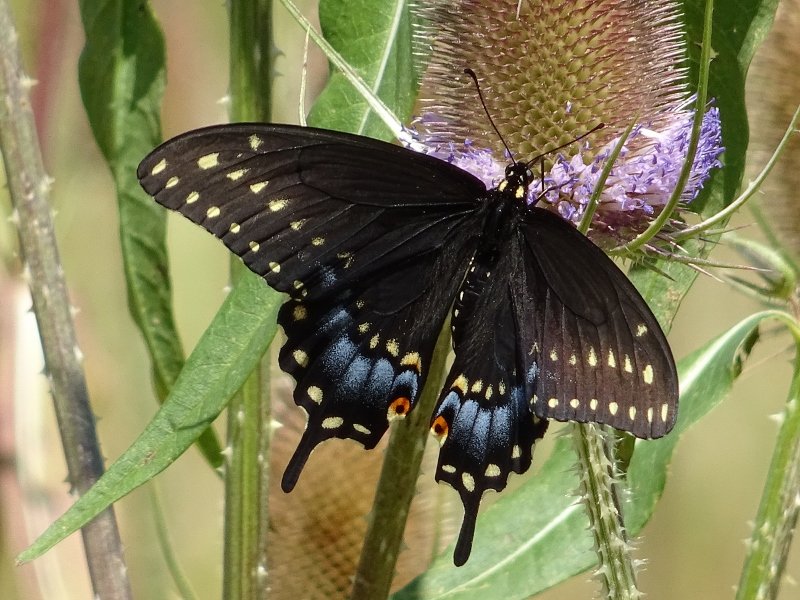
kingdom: Animalia
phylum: Arthropoda
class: Insecta
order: Lepidoptera
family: Papilionidae
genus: Papilio
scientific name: Papilio polyxenes
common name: Black Swallowtail
